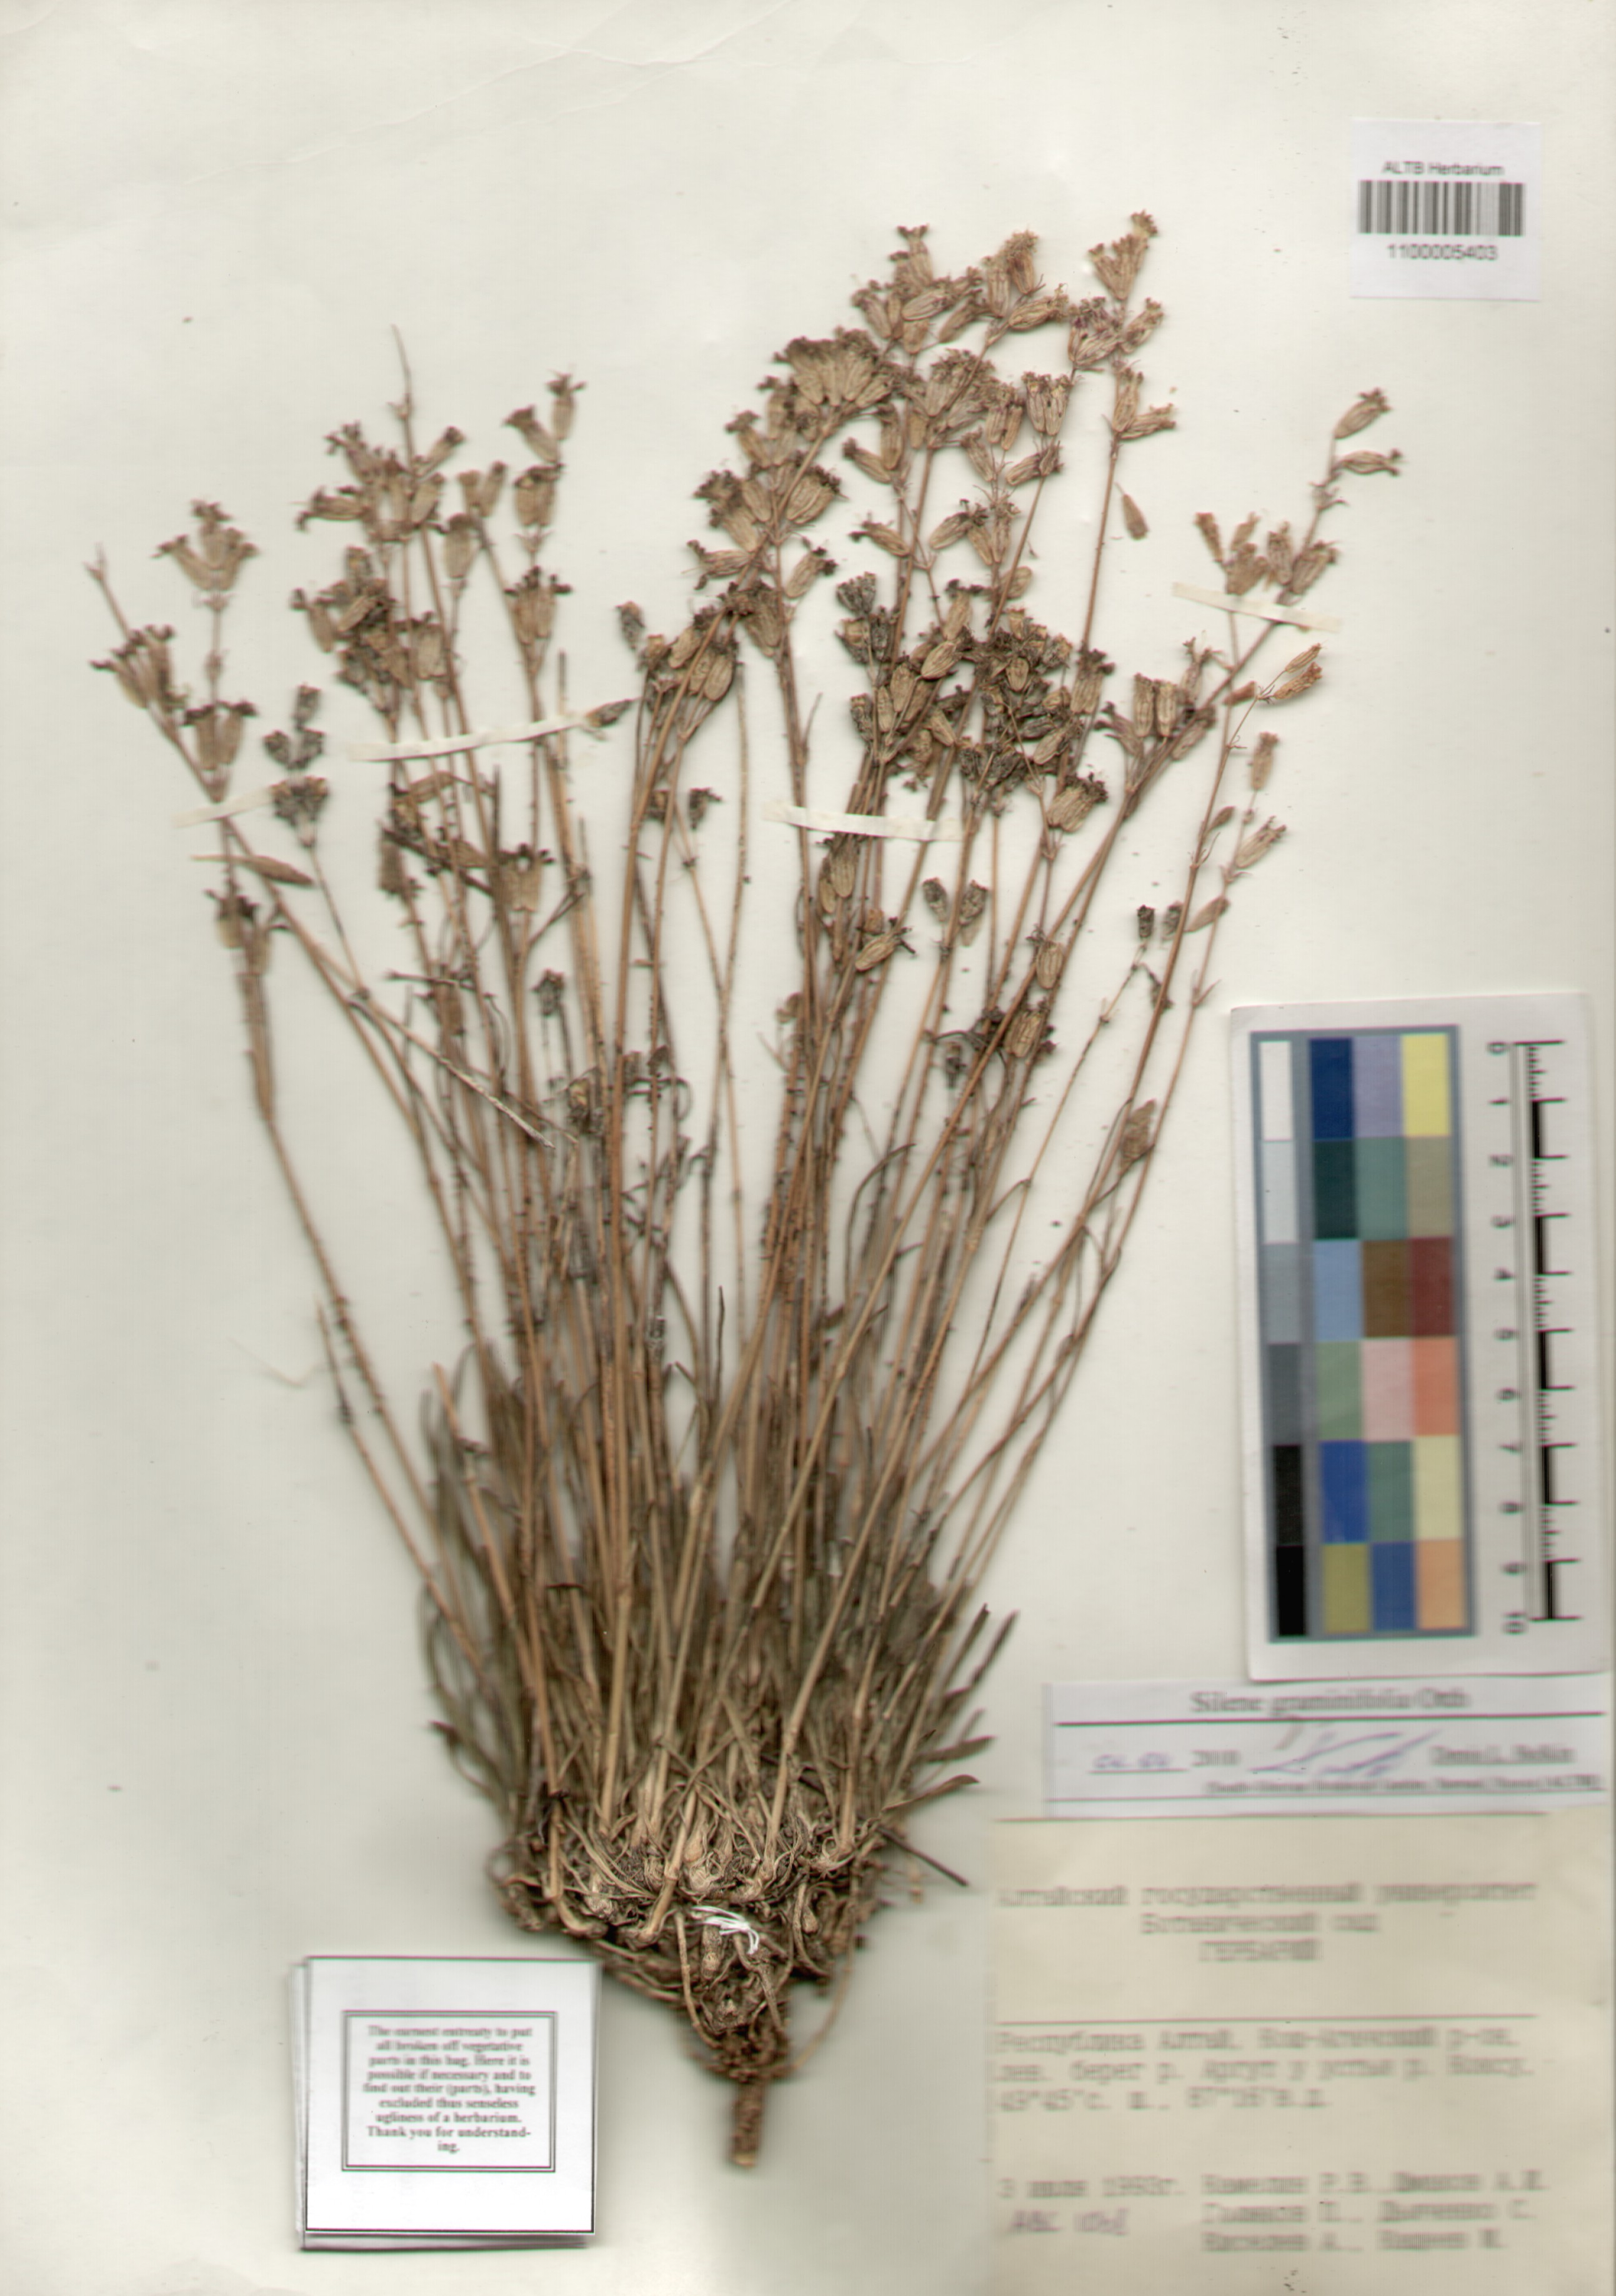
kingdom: Plantae
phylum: Tracheophyta
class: Magnoliopsida
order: Caryophyllales
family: Caryophyllaceae
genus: Silene
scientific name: Silene graminifolia
